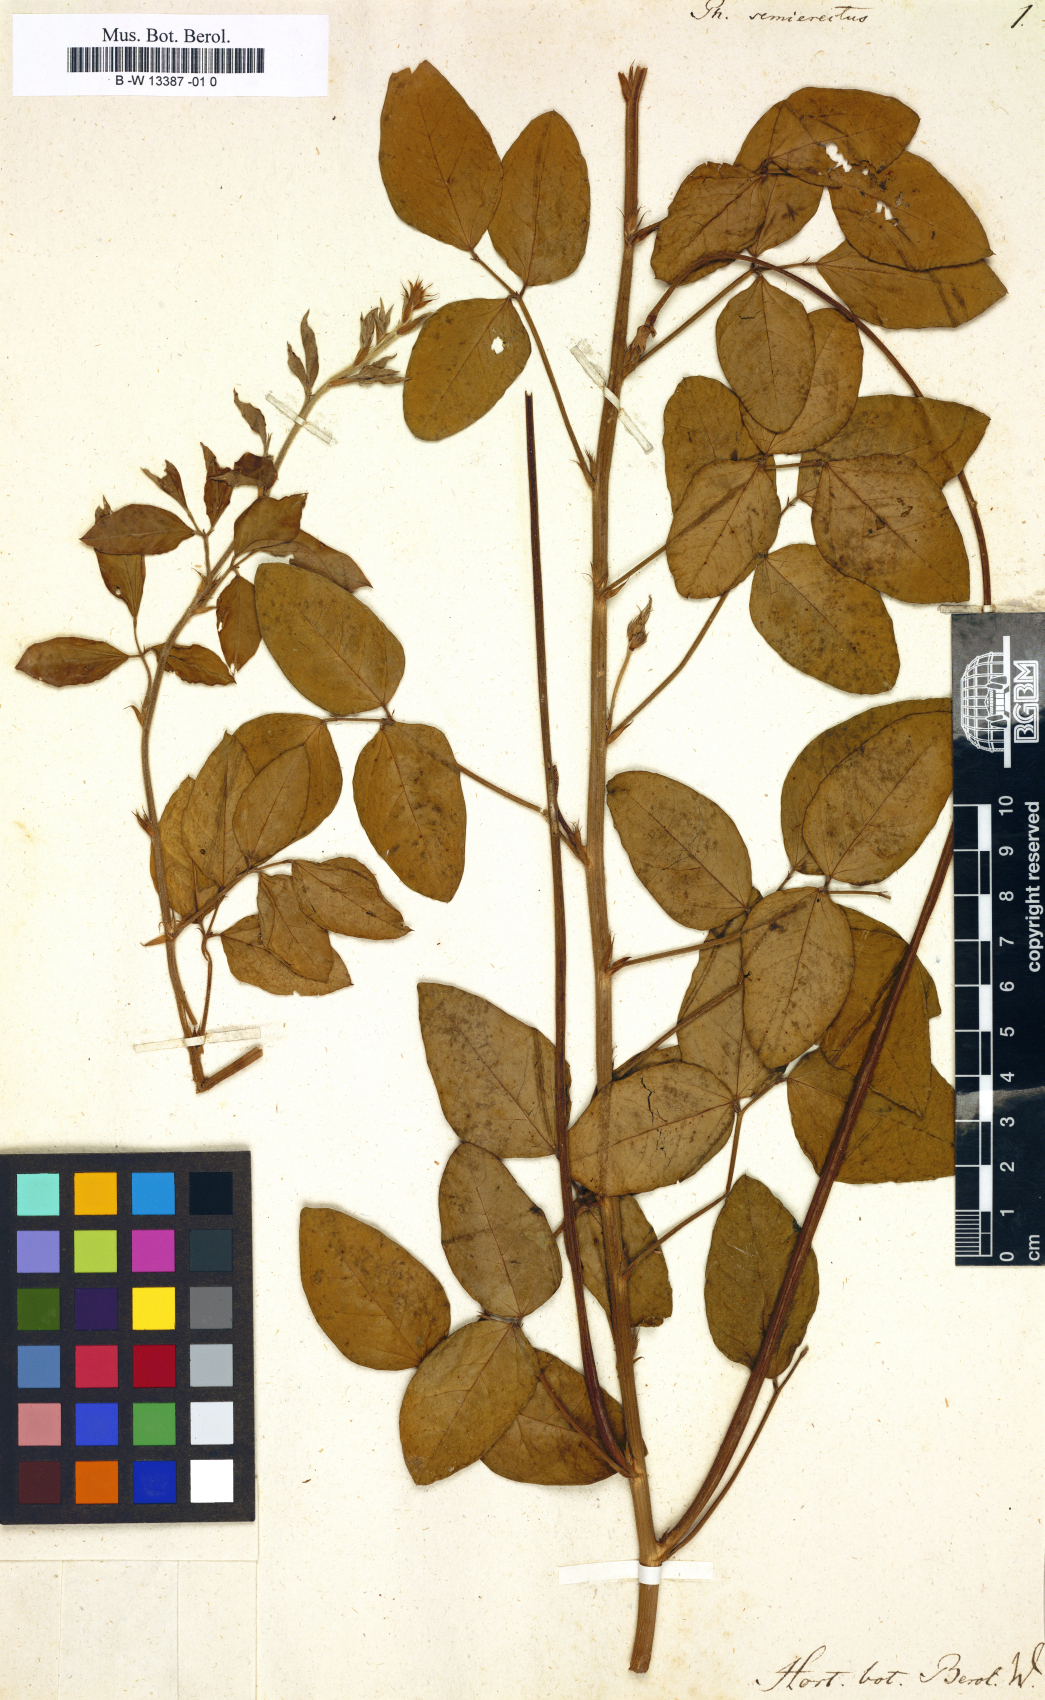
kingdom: Plantae
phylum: Tracheophyta
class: Magnoliopsida
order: Fabales
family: Fabaceae
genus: Macroptilium
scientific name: Macroptilium lathyroides
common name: Wild bushbean
